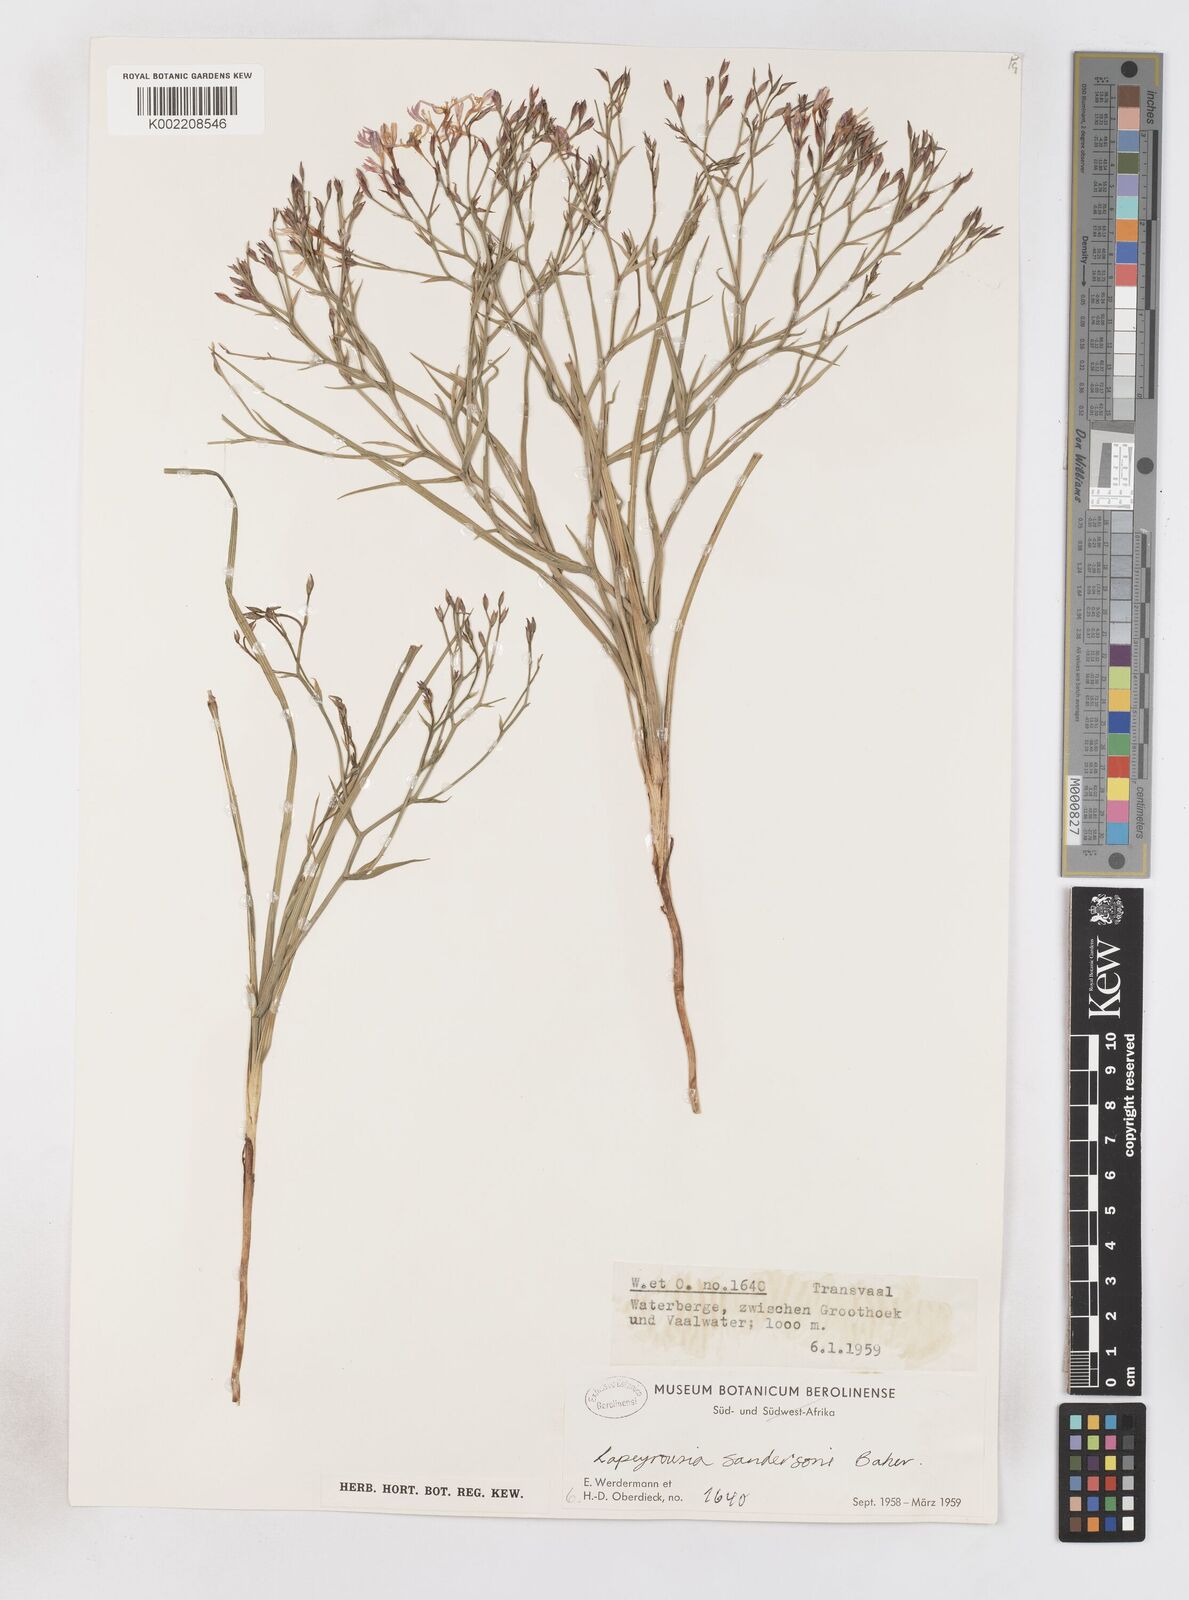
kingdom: Plantae
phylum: Tracheophyta
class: Liliopsida
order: Asparagales
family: Iridaceae
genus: Afrosolen
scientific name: Afrosolen sandersonii
